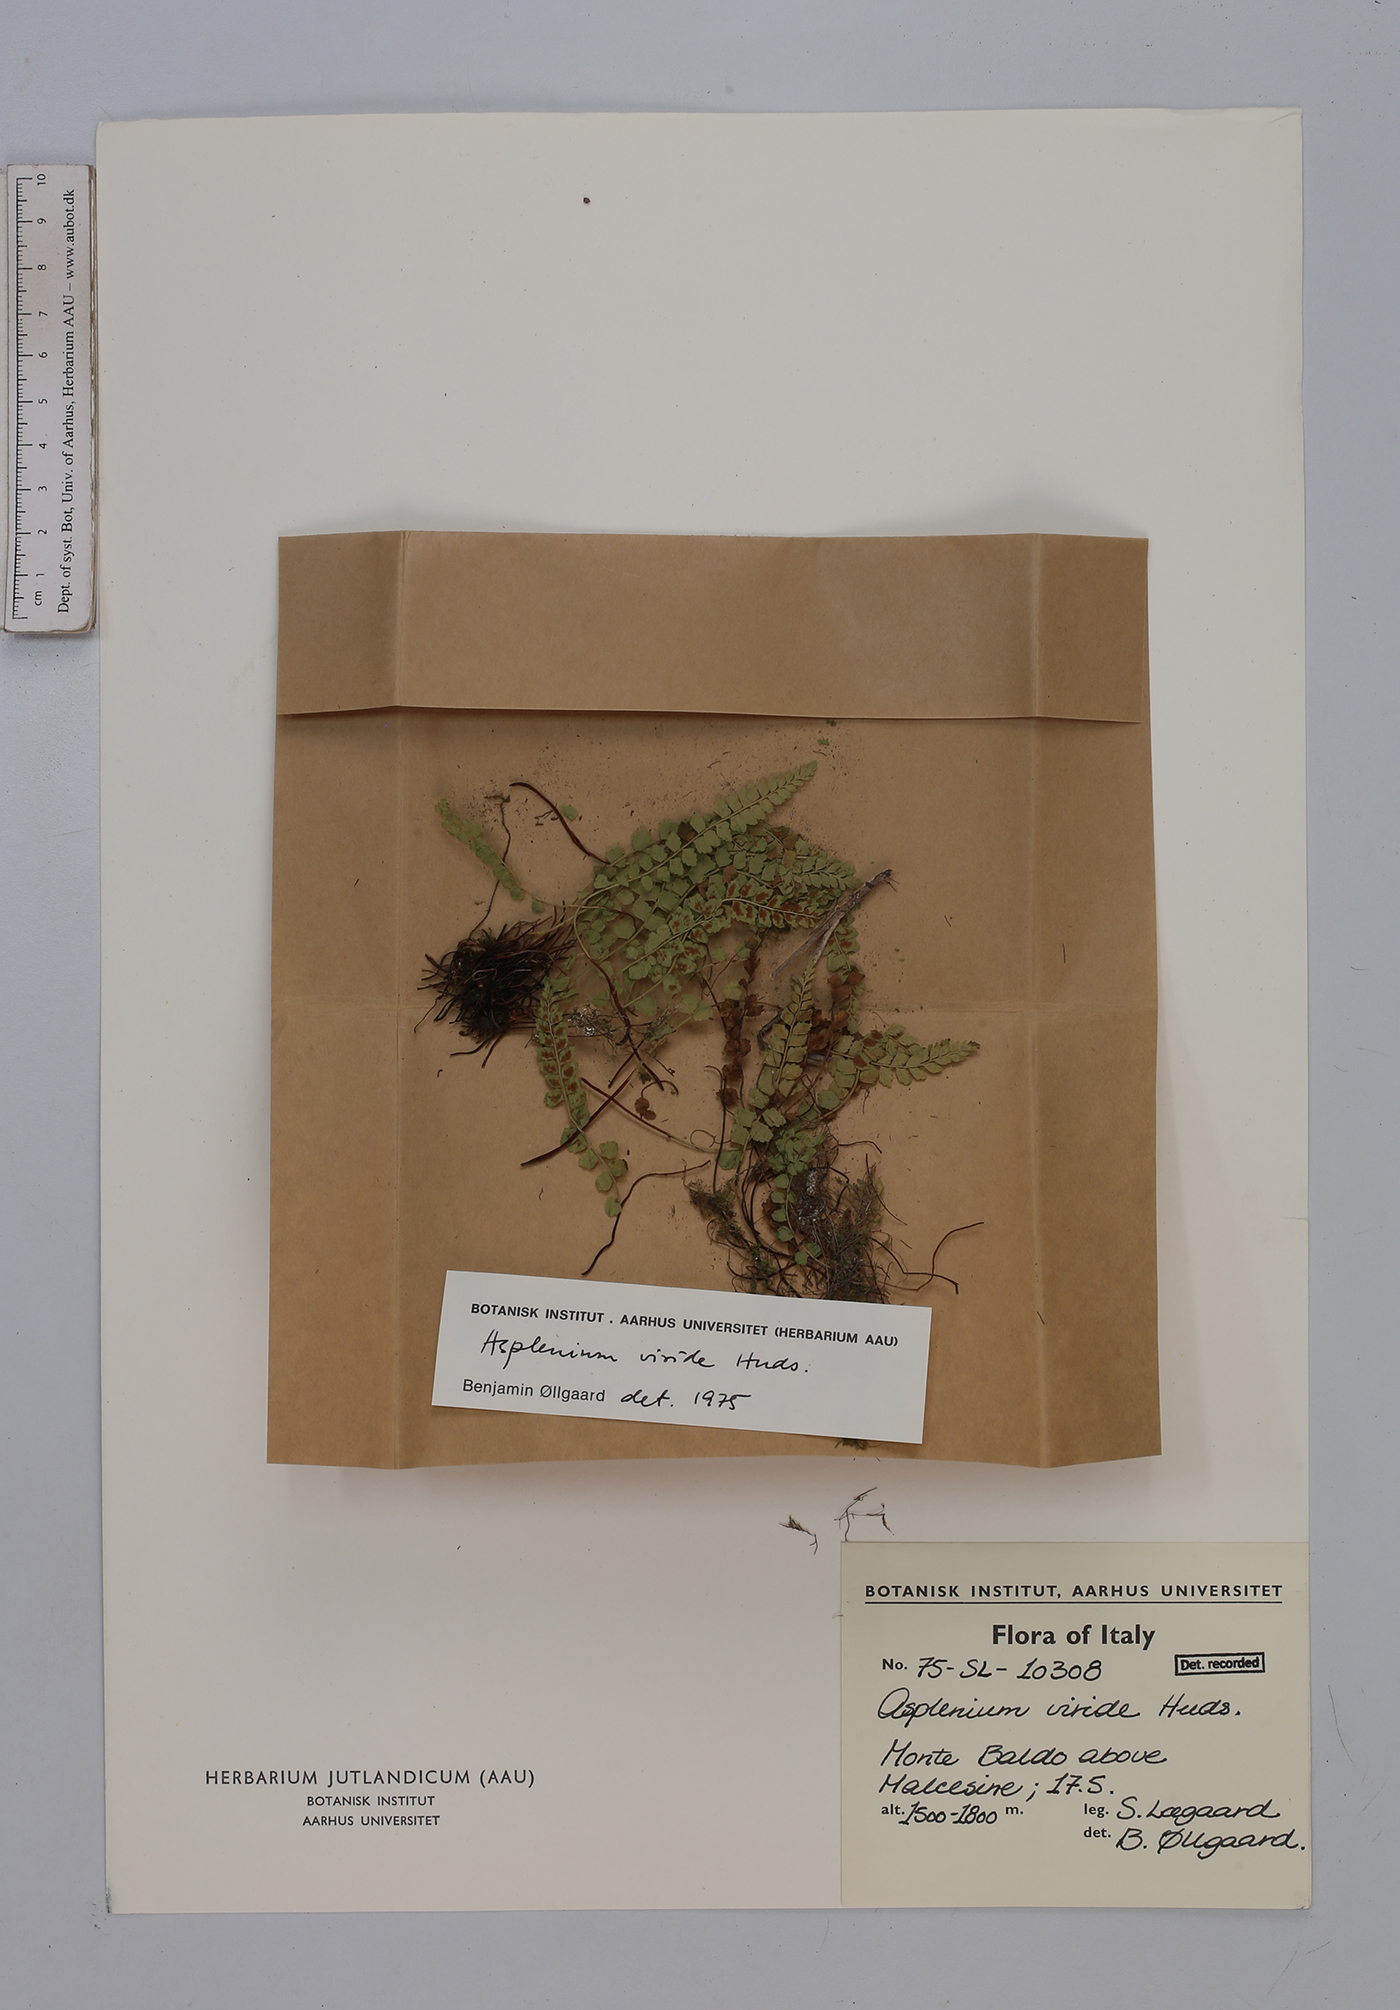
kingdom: Plantae
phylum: Tracheophyta
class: Polypodiopsida
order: Polypodiales
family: Aspleniaceae
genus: Asplenium
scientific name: Asplenium viride
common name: Green spleenwort
